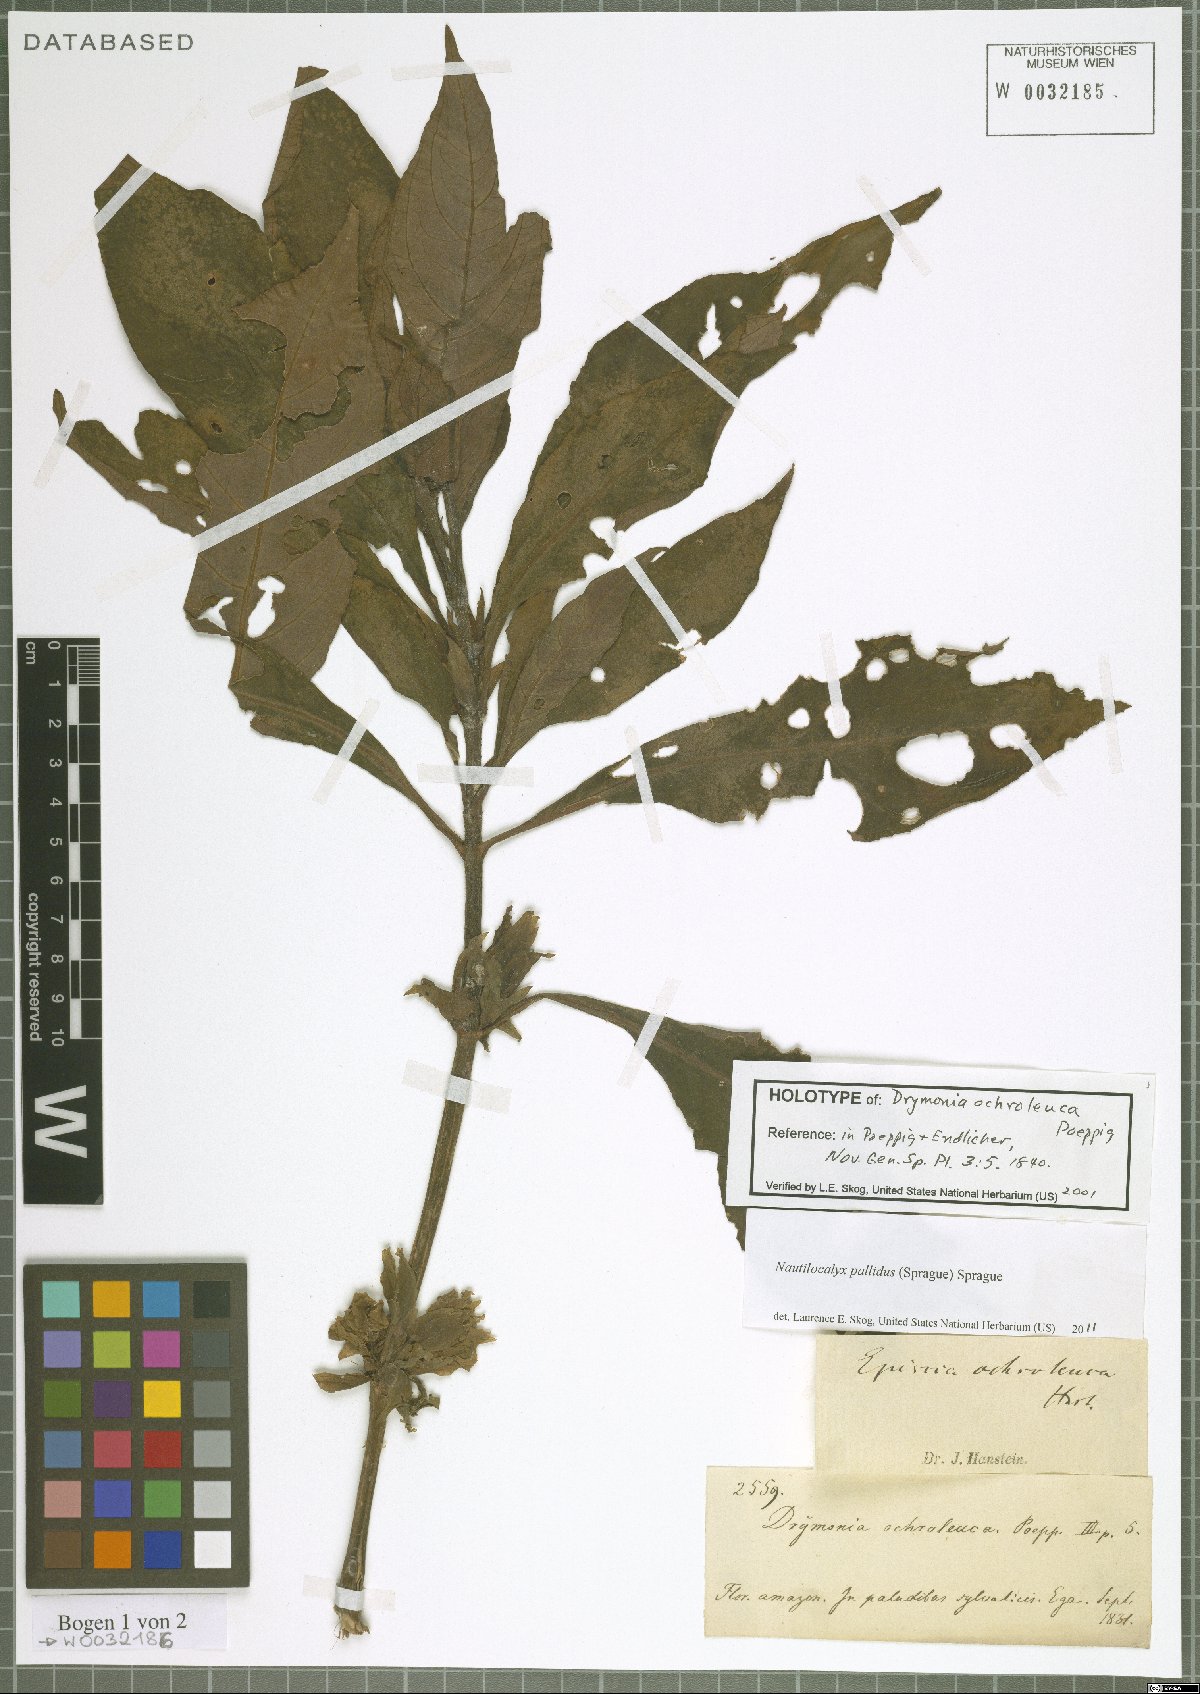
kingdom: Plantae
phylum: Tracheophyta
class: Magnoliopsida
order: Lamiales
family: Gesneriaceae
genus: Nautilocalyx
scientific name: Nautilocalyx pallidus
